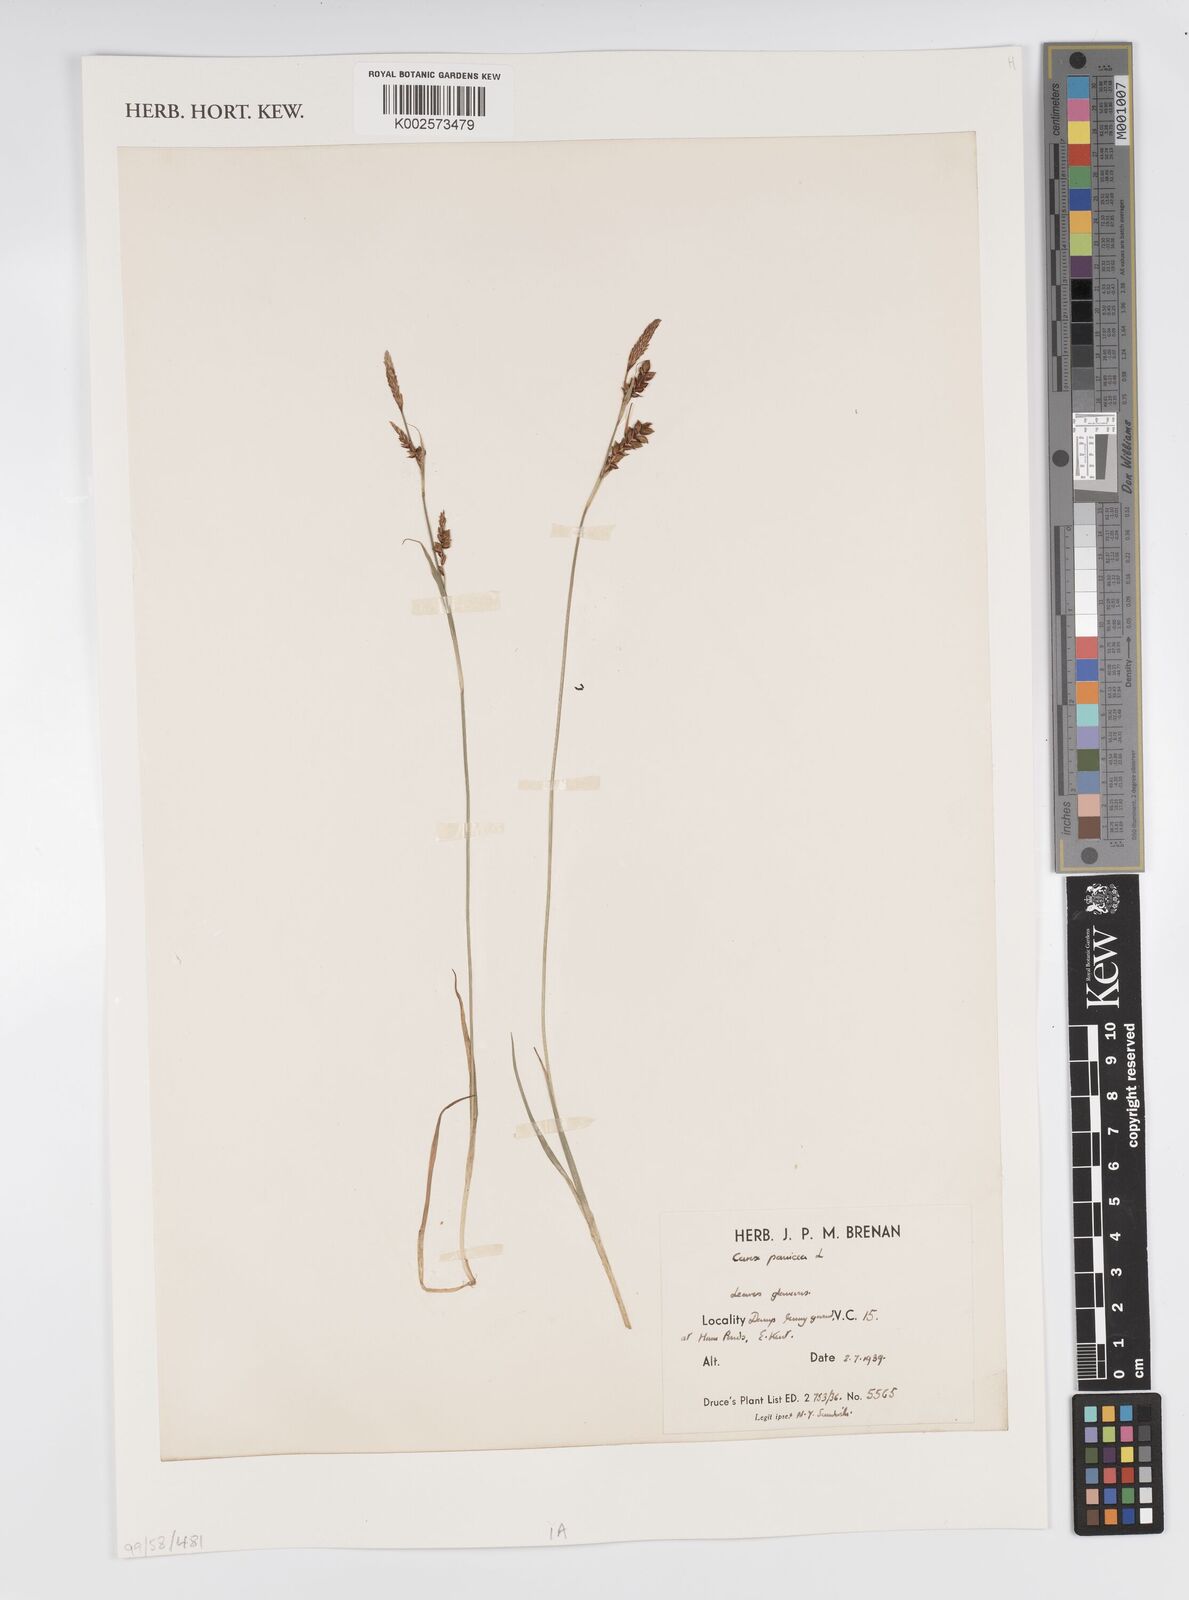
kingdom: Plantae
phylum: Tracheophyta
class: Liliopsida
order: Poales
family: Cyperaceae
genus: Carex
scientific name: Carex panicea
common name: Carnation sedge
